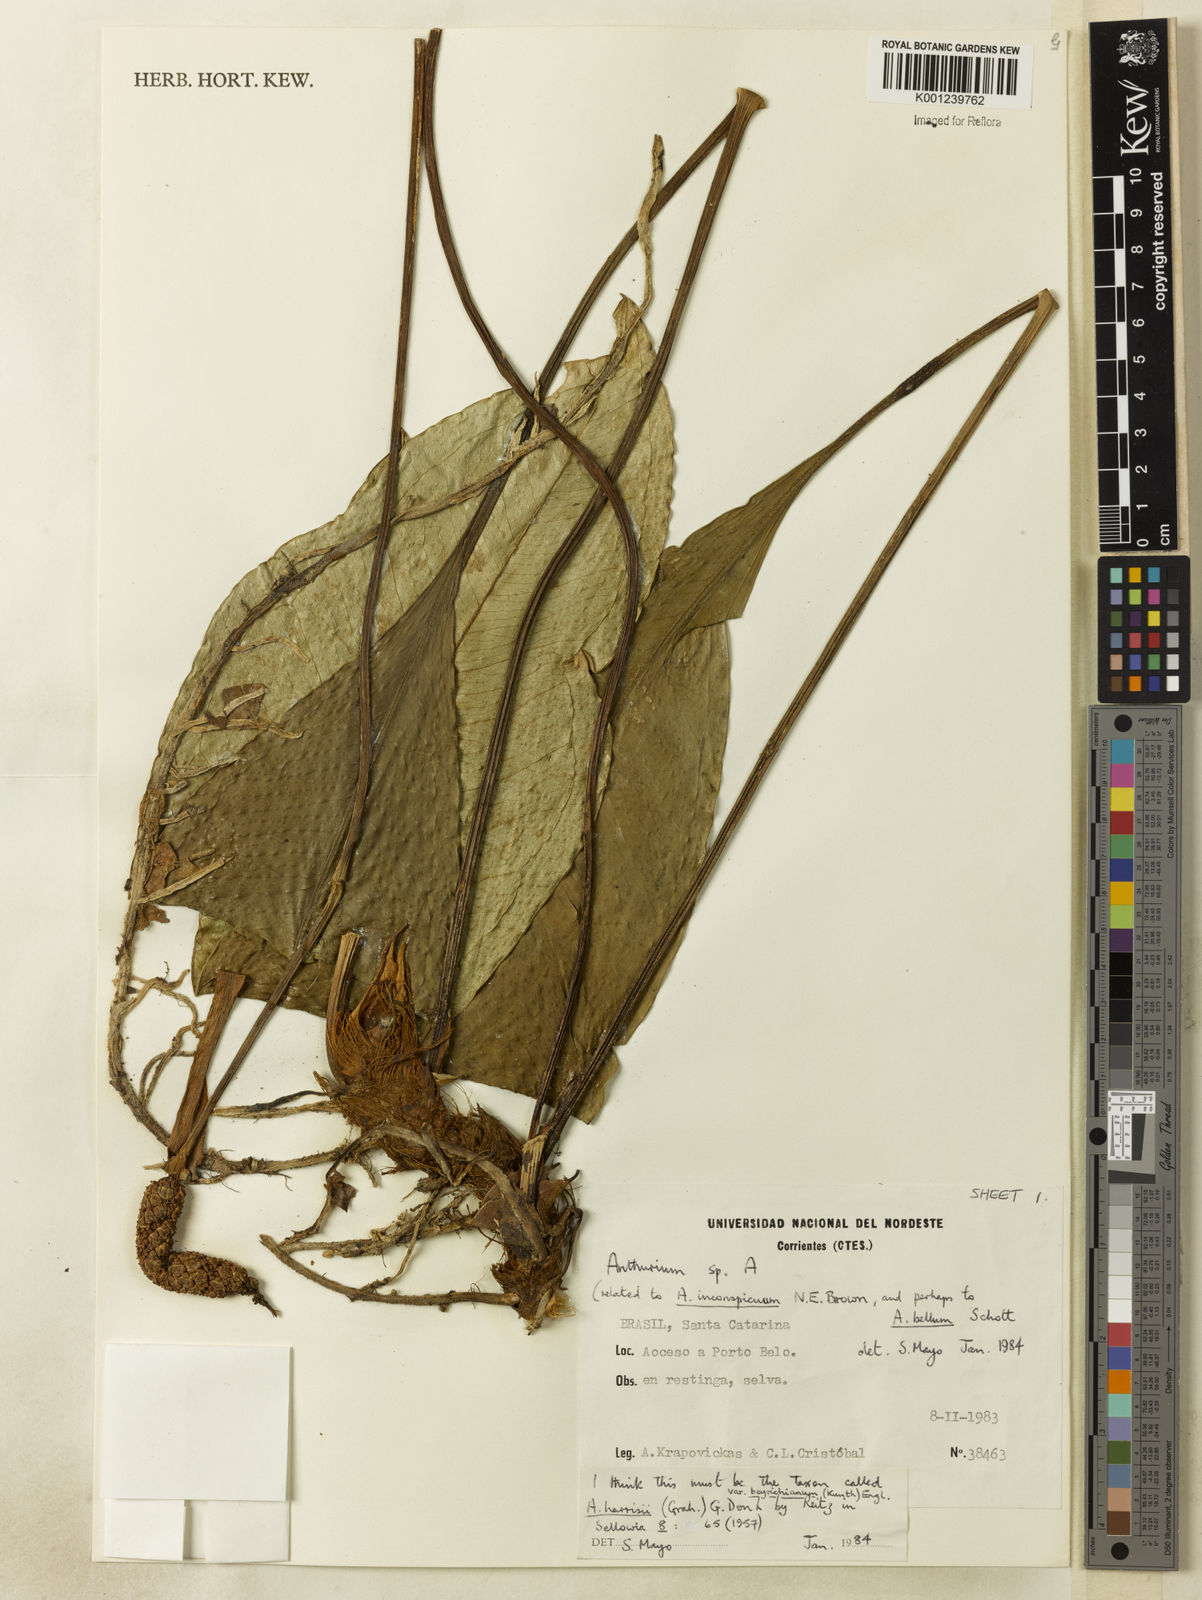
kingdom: Plantae
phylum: Tracheophyta
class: Liliopsida
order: Alismatales
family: Araceae
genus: Anthurium
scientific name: Anthurium
